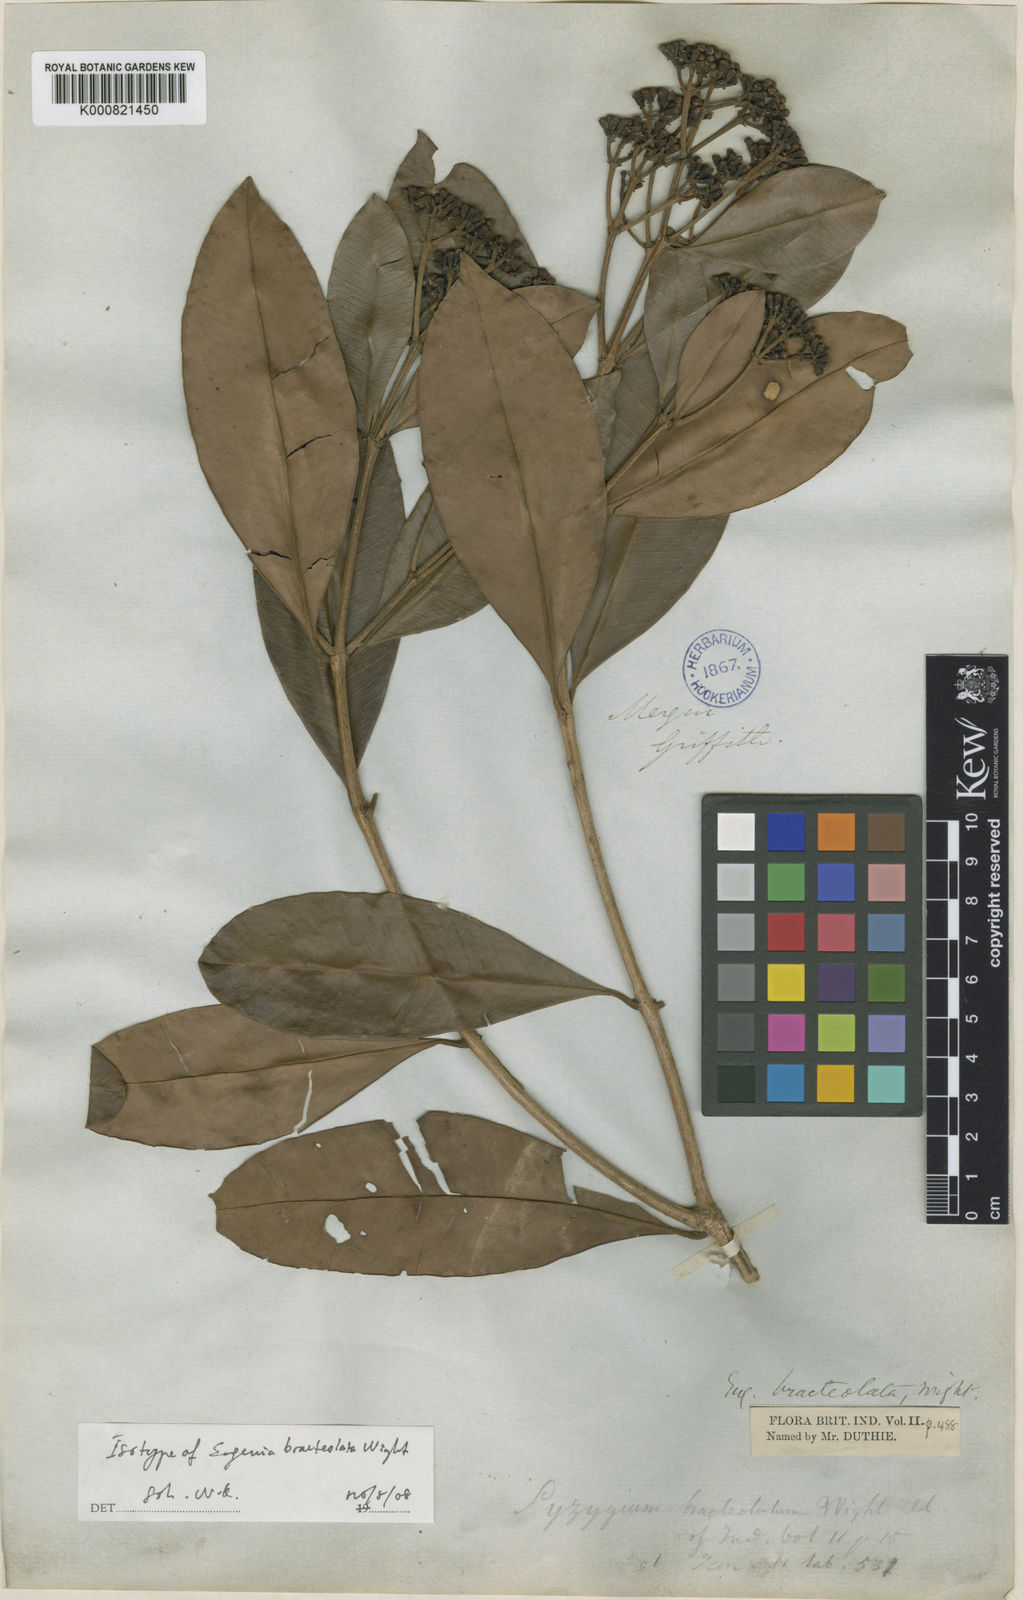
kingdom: Plantae
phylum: Tracheophyta
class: Magnoliopsida
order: Myrtales
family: Myrtaceae
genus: Syzygium
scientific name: Syzygium fastigiatum
